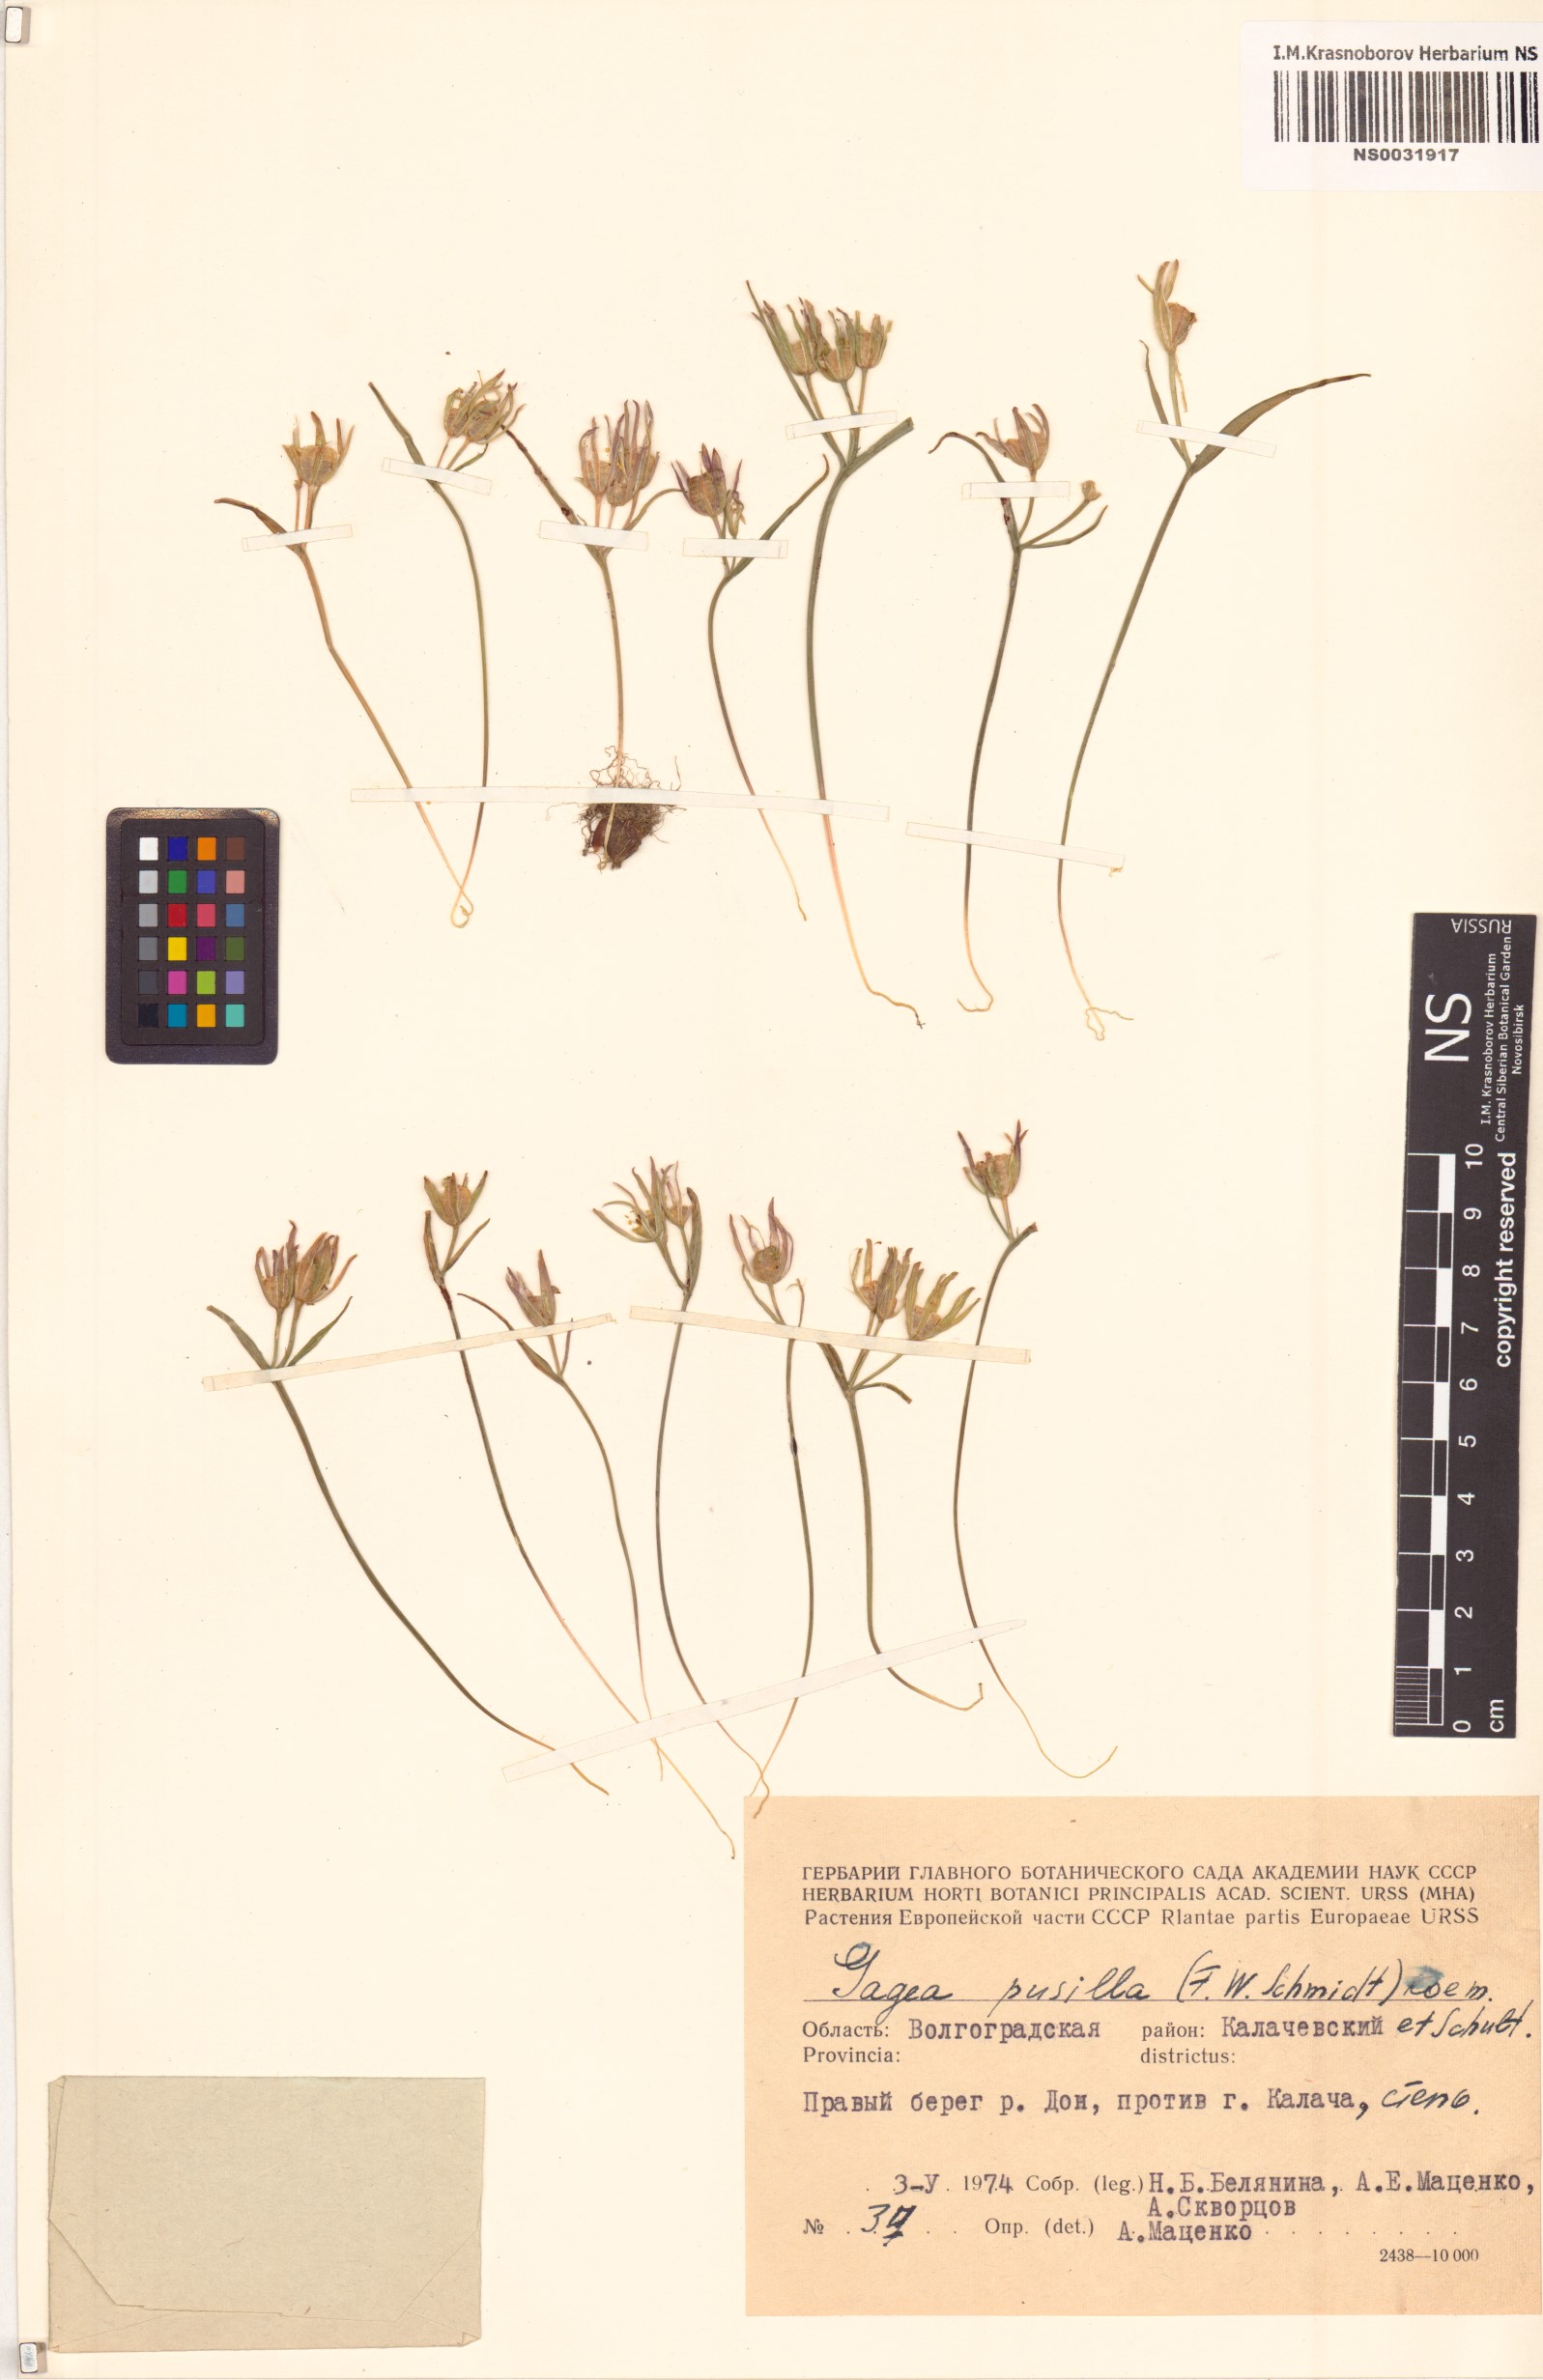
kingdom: Plantae
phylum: Tracheophyta
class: Liliopsida
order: Liliales
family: Liliaceae
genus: Gagea
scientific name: Gagea pusilla
